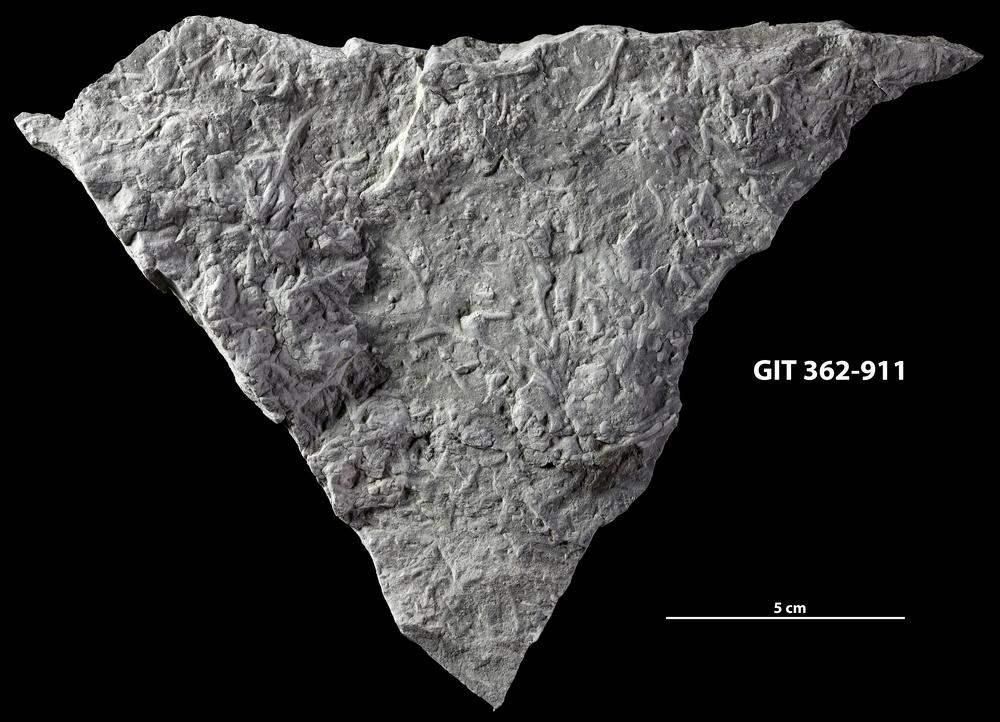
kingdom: Animalia
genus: Chondrites
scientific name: Chondrites
